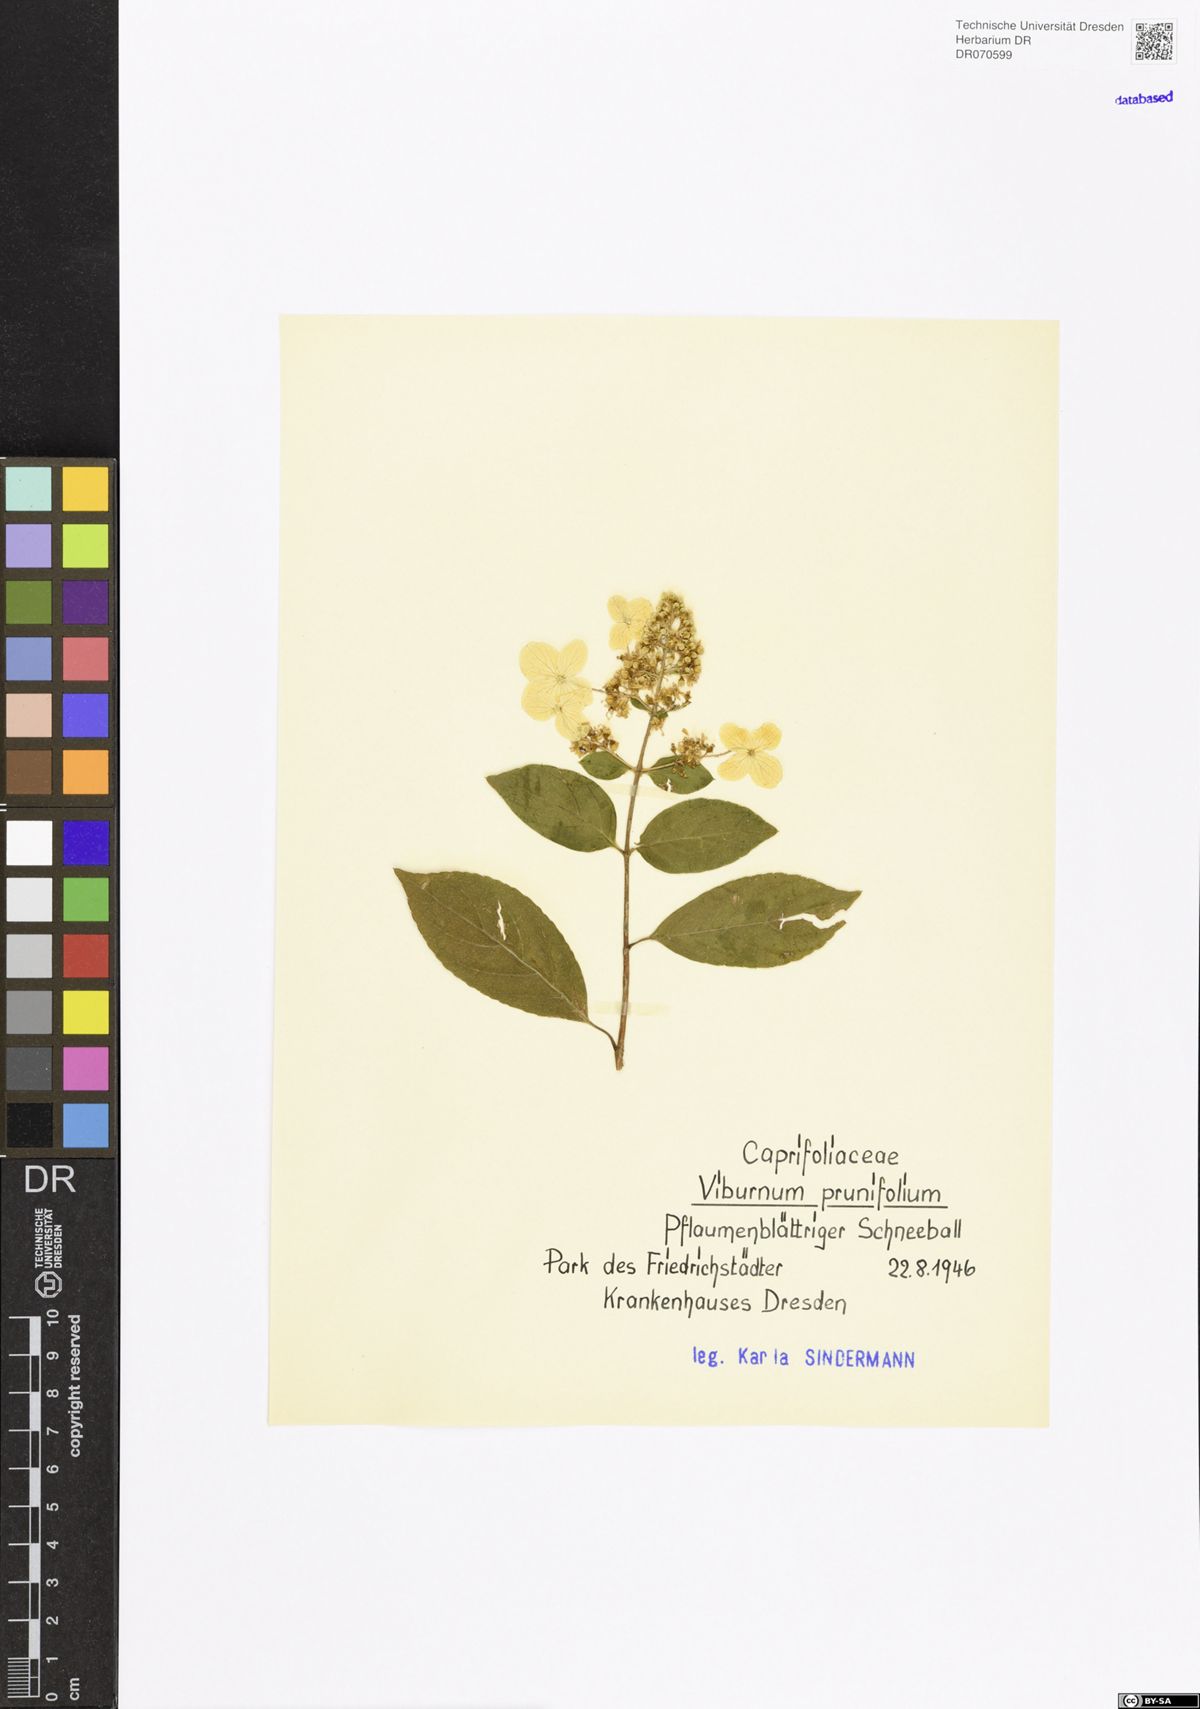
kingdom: Plantae
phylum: Tracheophyta
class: Magnoliopsida
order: Dipsacales
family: Viburnaceae
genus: Viburnum
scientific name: Viburnum prunifolium
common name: Black haw
